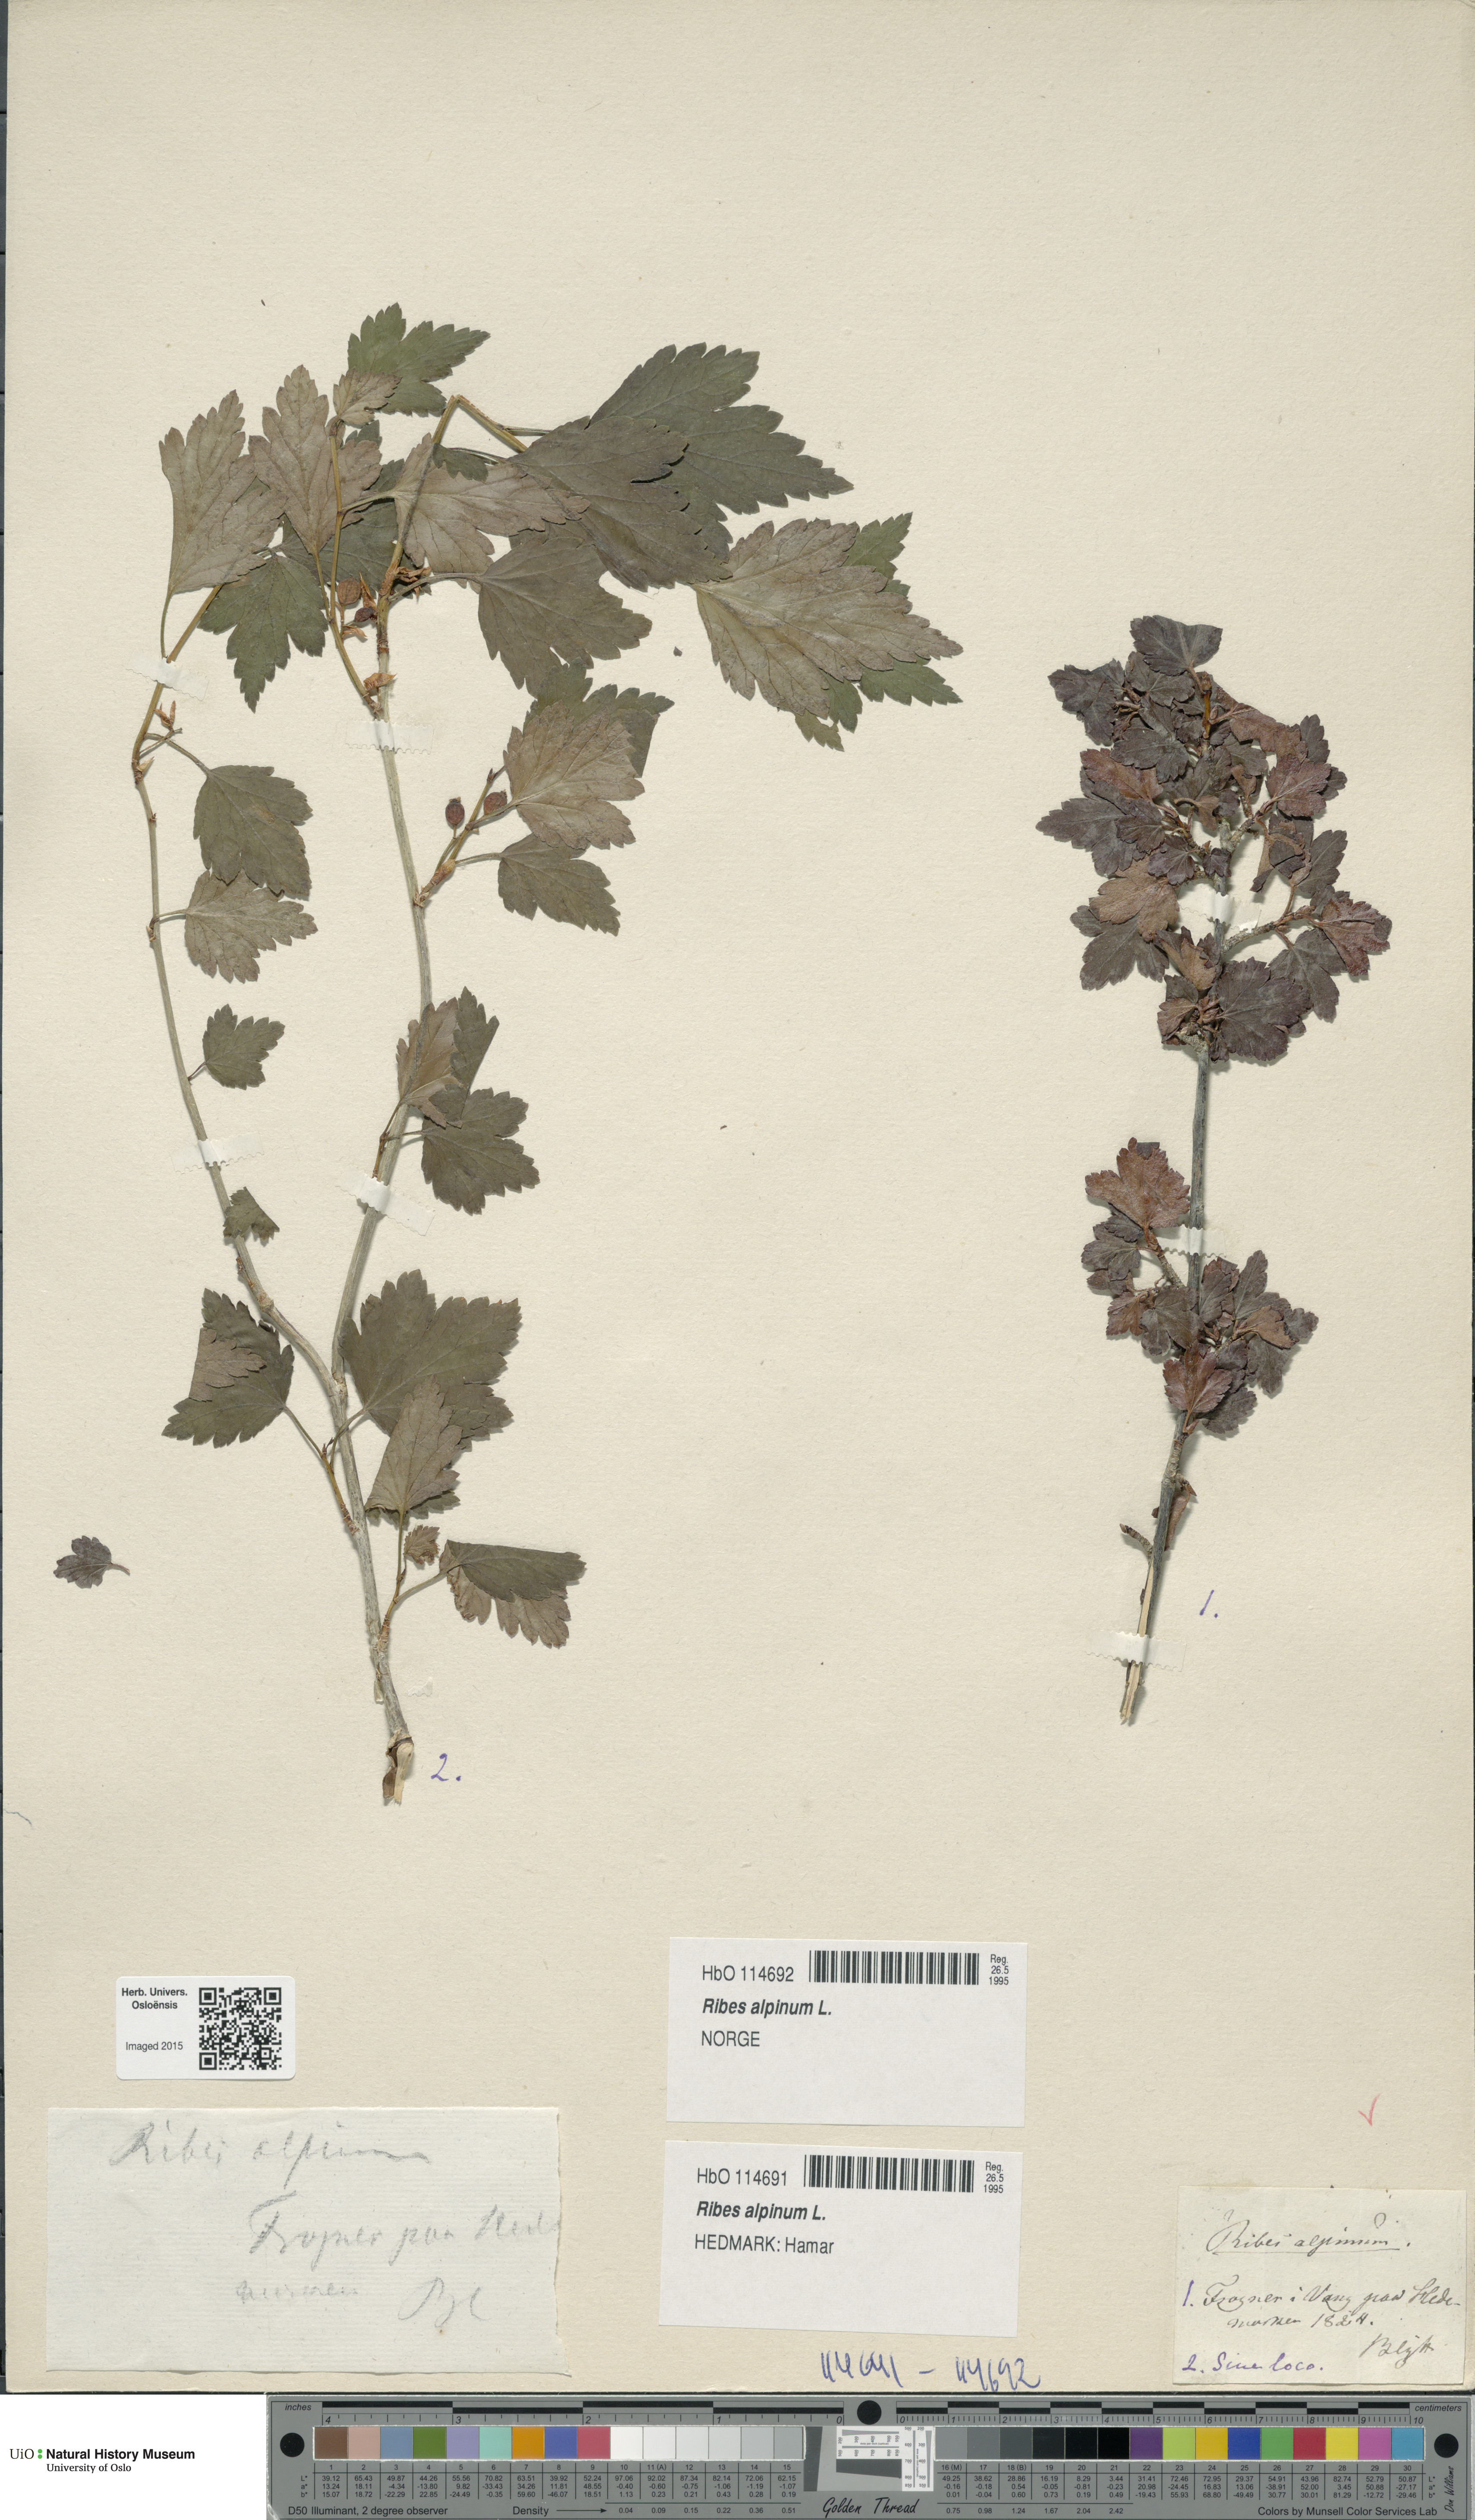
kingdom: Plantae
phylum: Tracheophyta
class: Magnoliopsida
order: Saxifragales
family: Grossulariaceae
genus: Ribes
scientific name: Ribes alpinum
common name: Alpine currant
